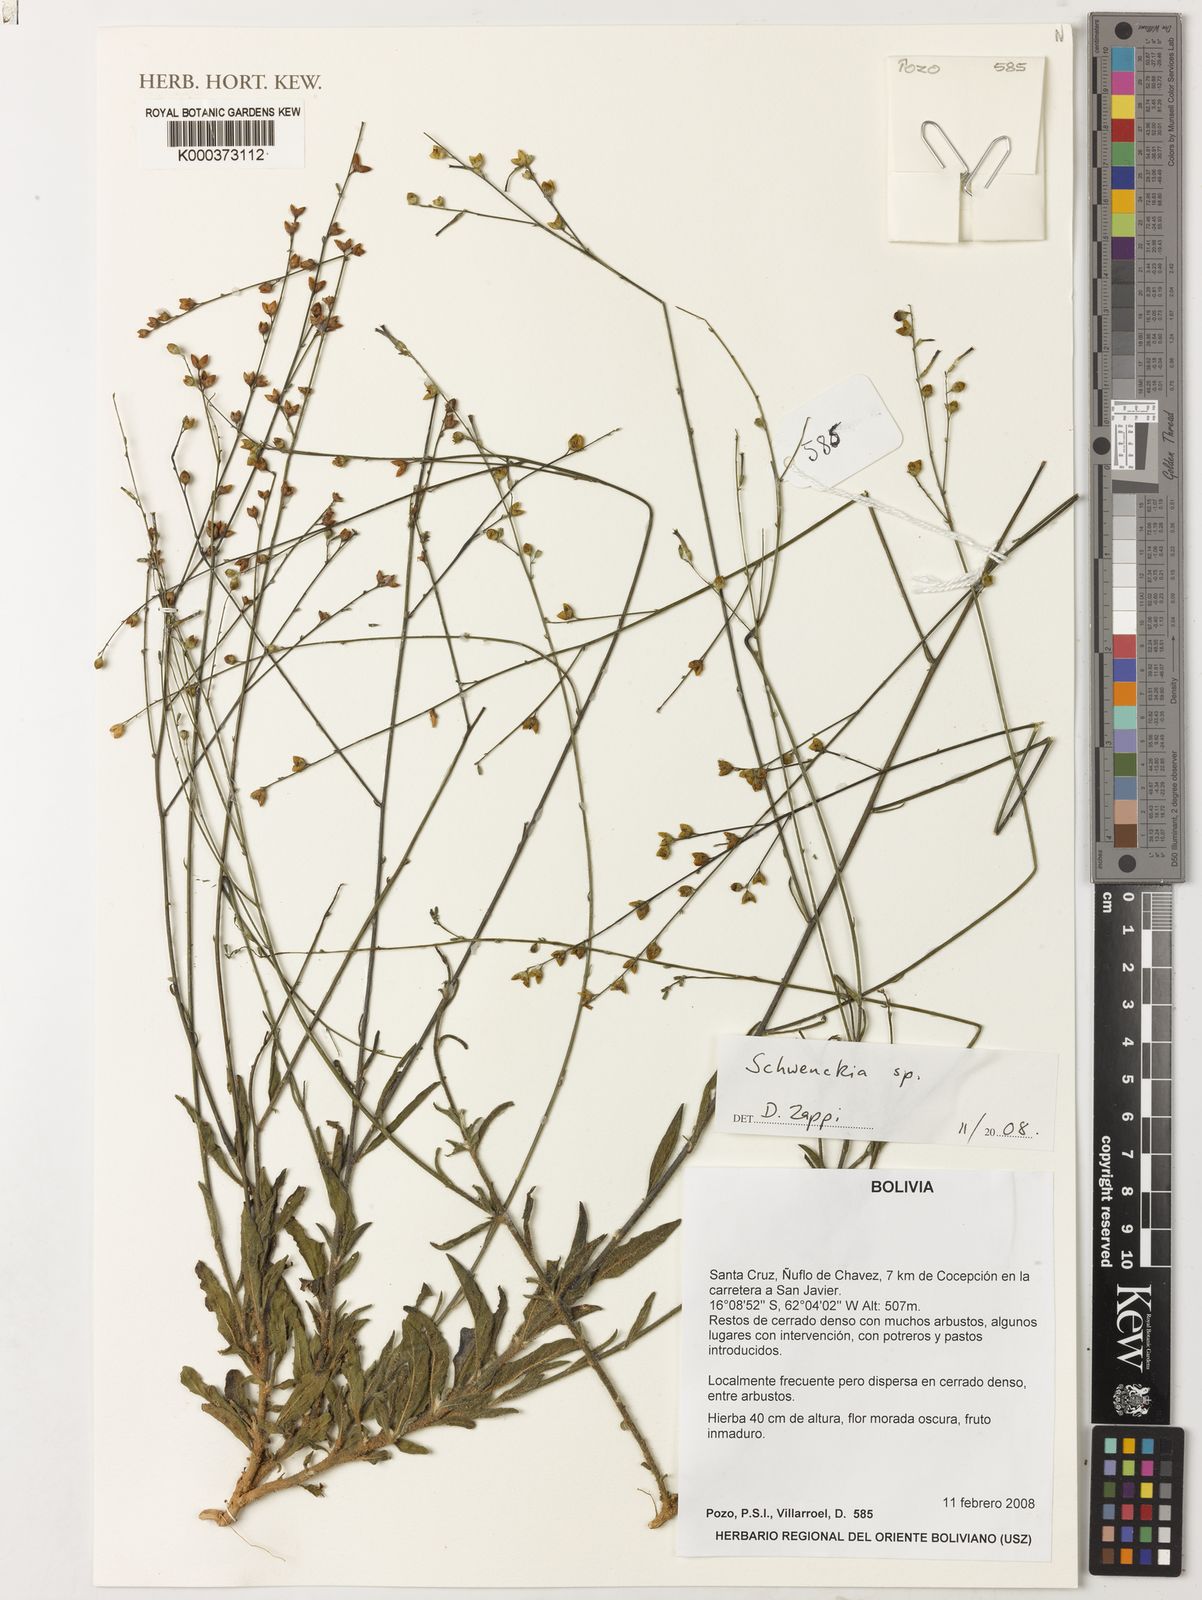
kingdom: Plantae
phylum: Tracheophyta
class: Magnoliopsida
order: Solanales
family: Solanaceae
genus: Schwenckia
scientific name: Schwenckia
